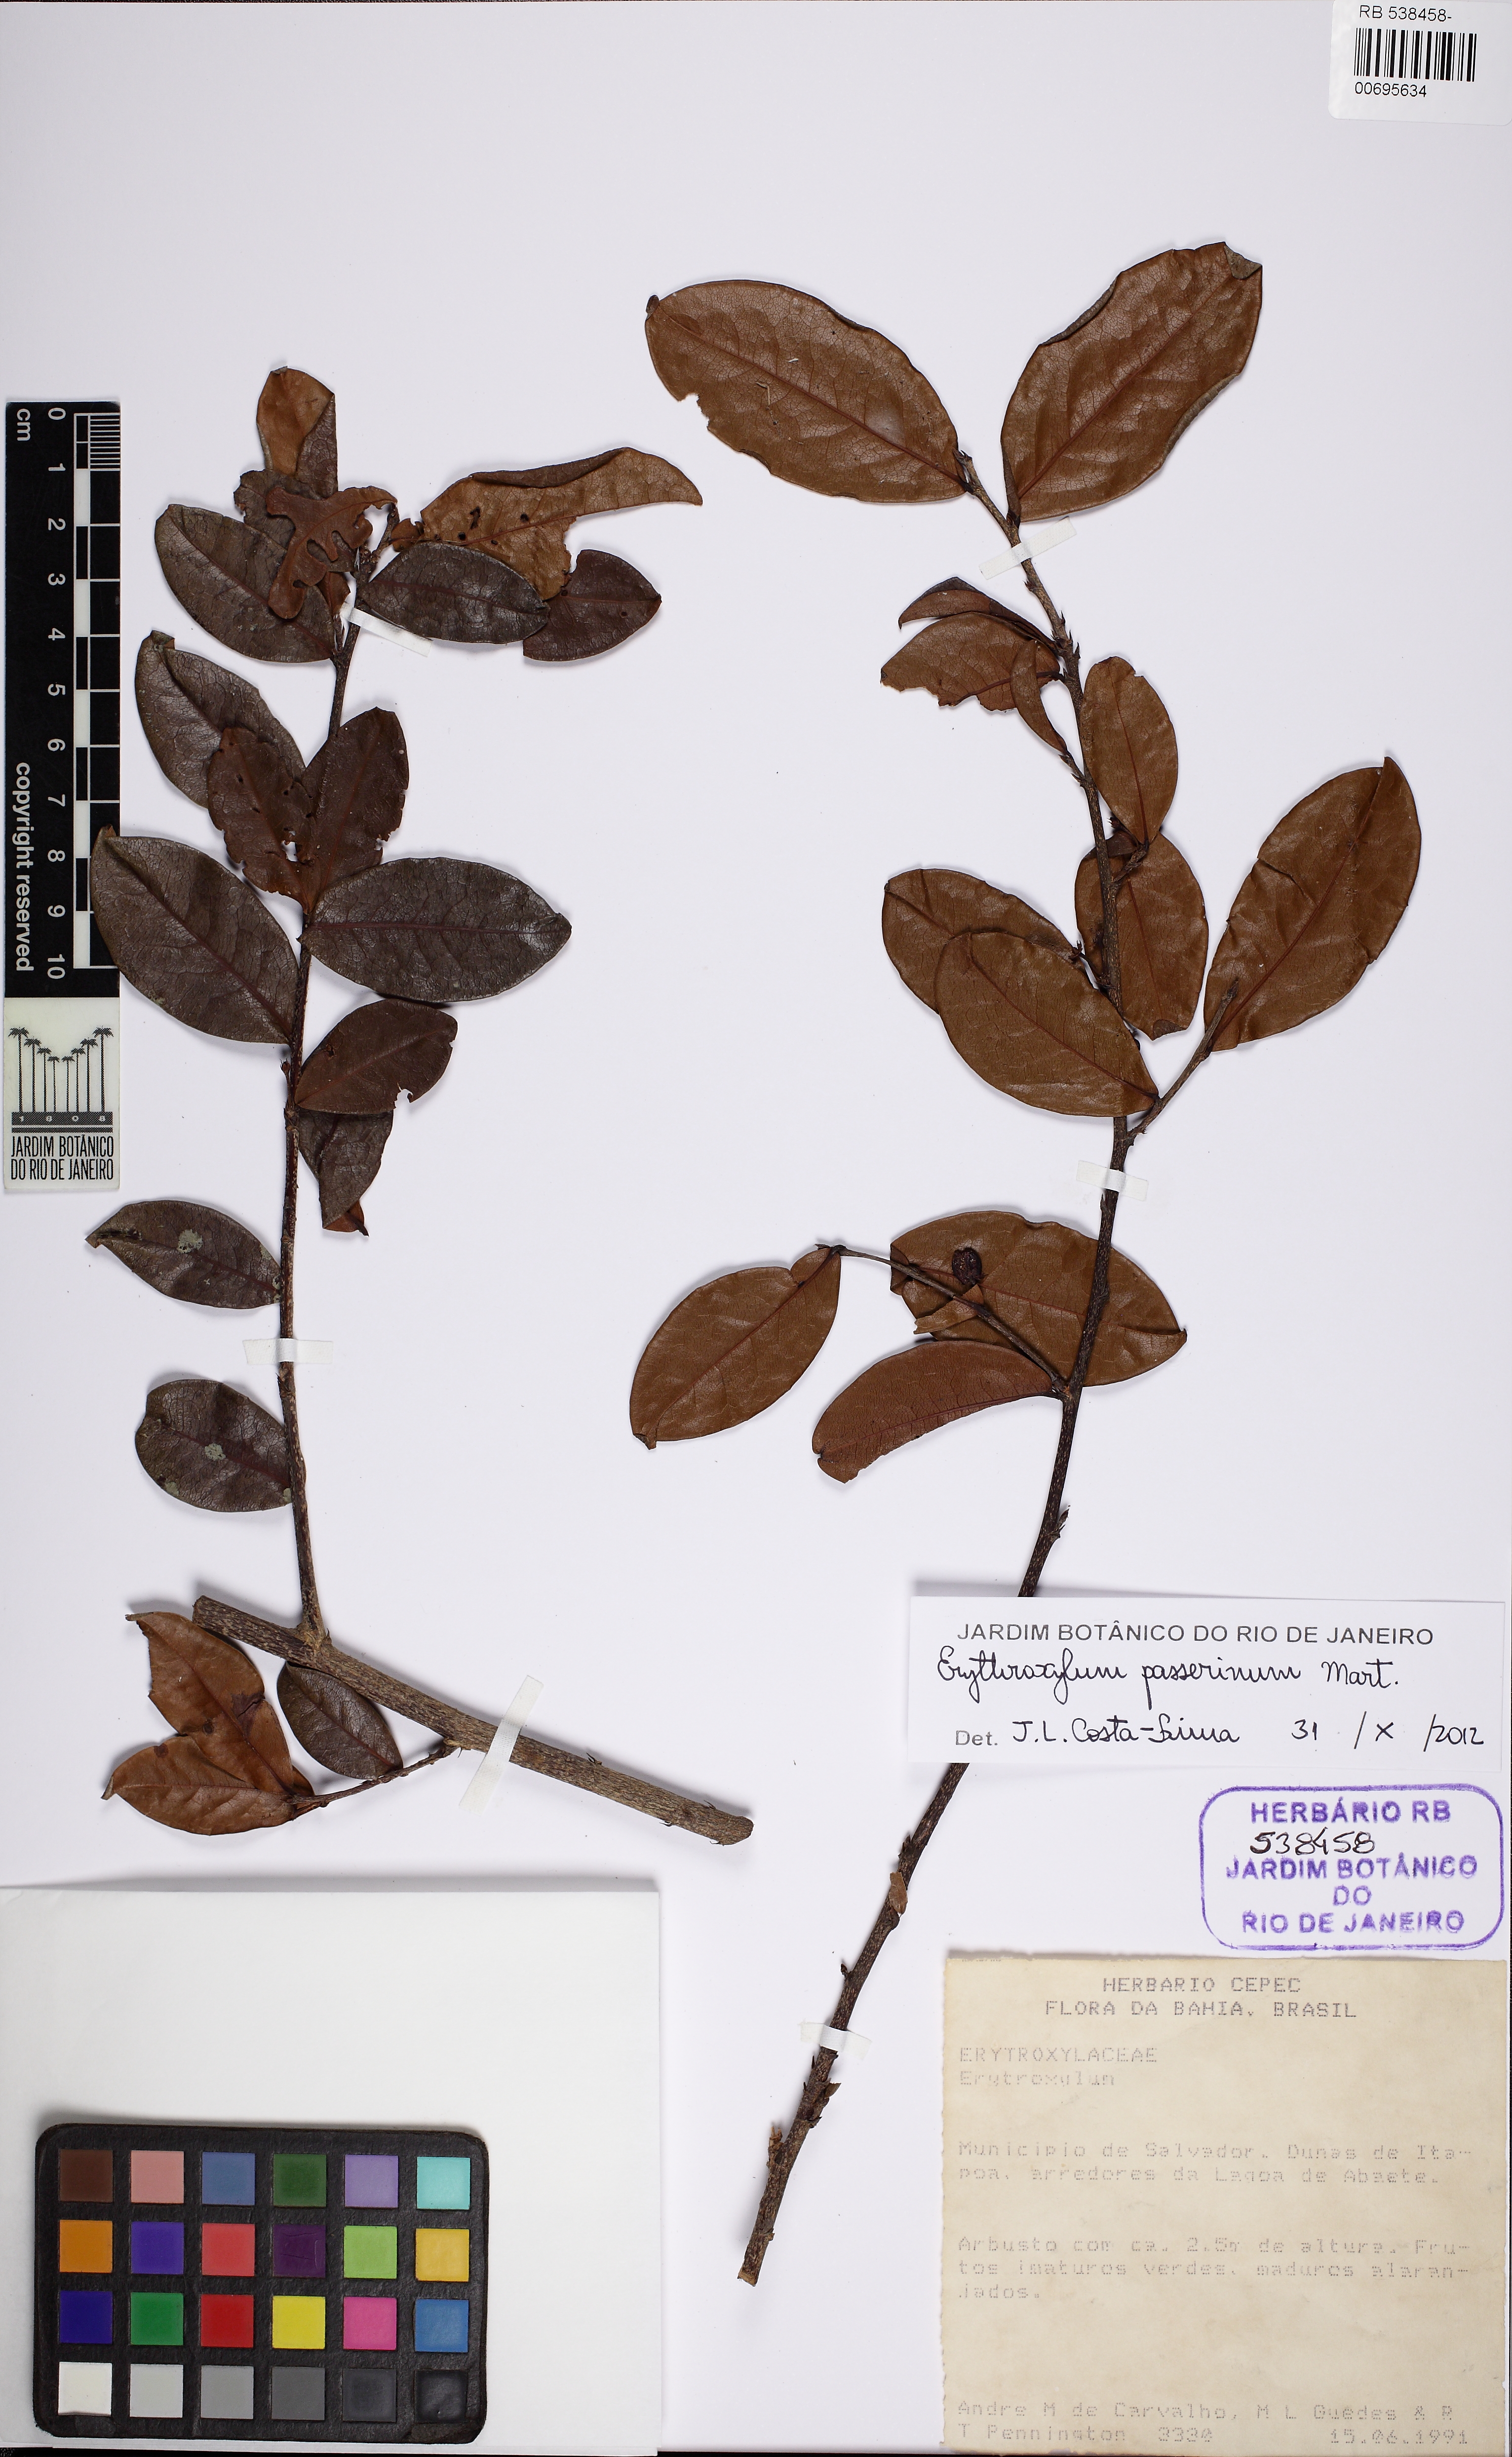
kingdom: Plantae
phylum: Tracheophyta
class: Magnoliopsida
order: Malpighiales
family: Erythroxylaceae
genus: Erythroxylum
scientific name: Erythroxylum passerinum
